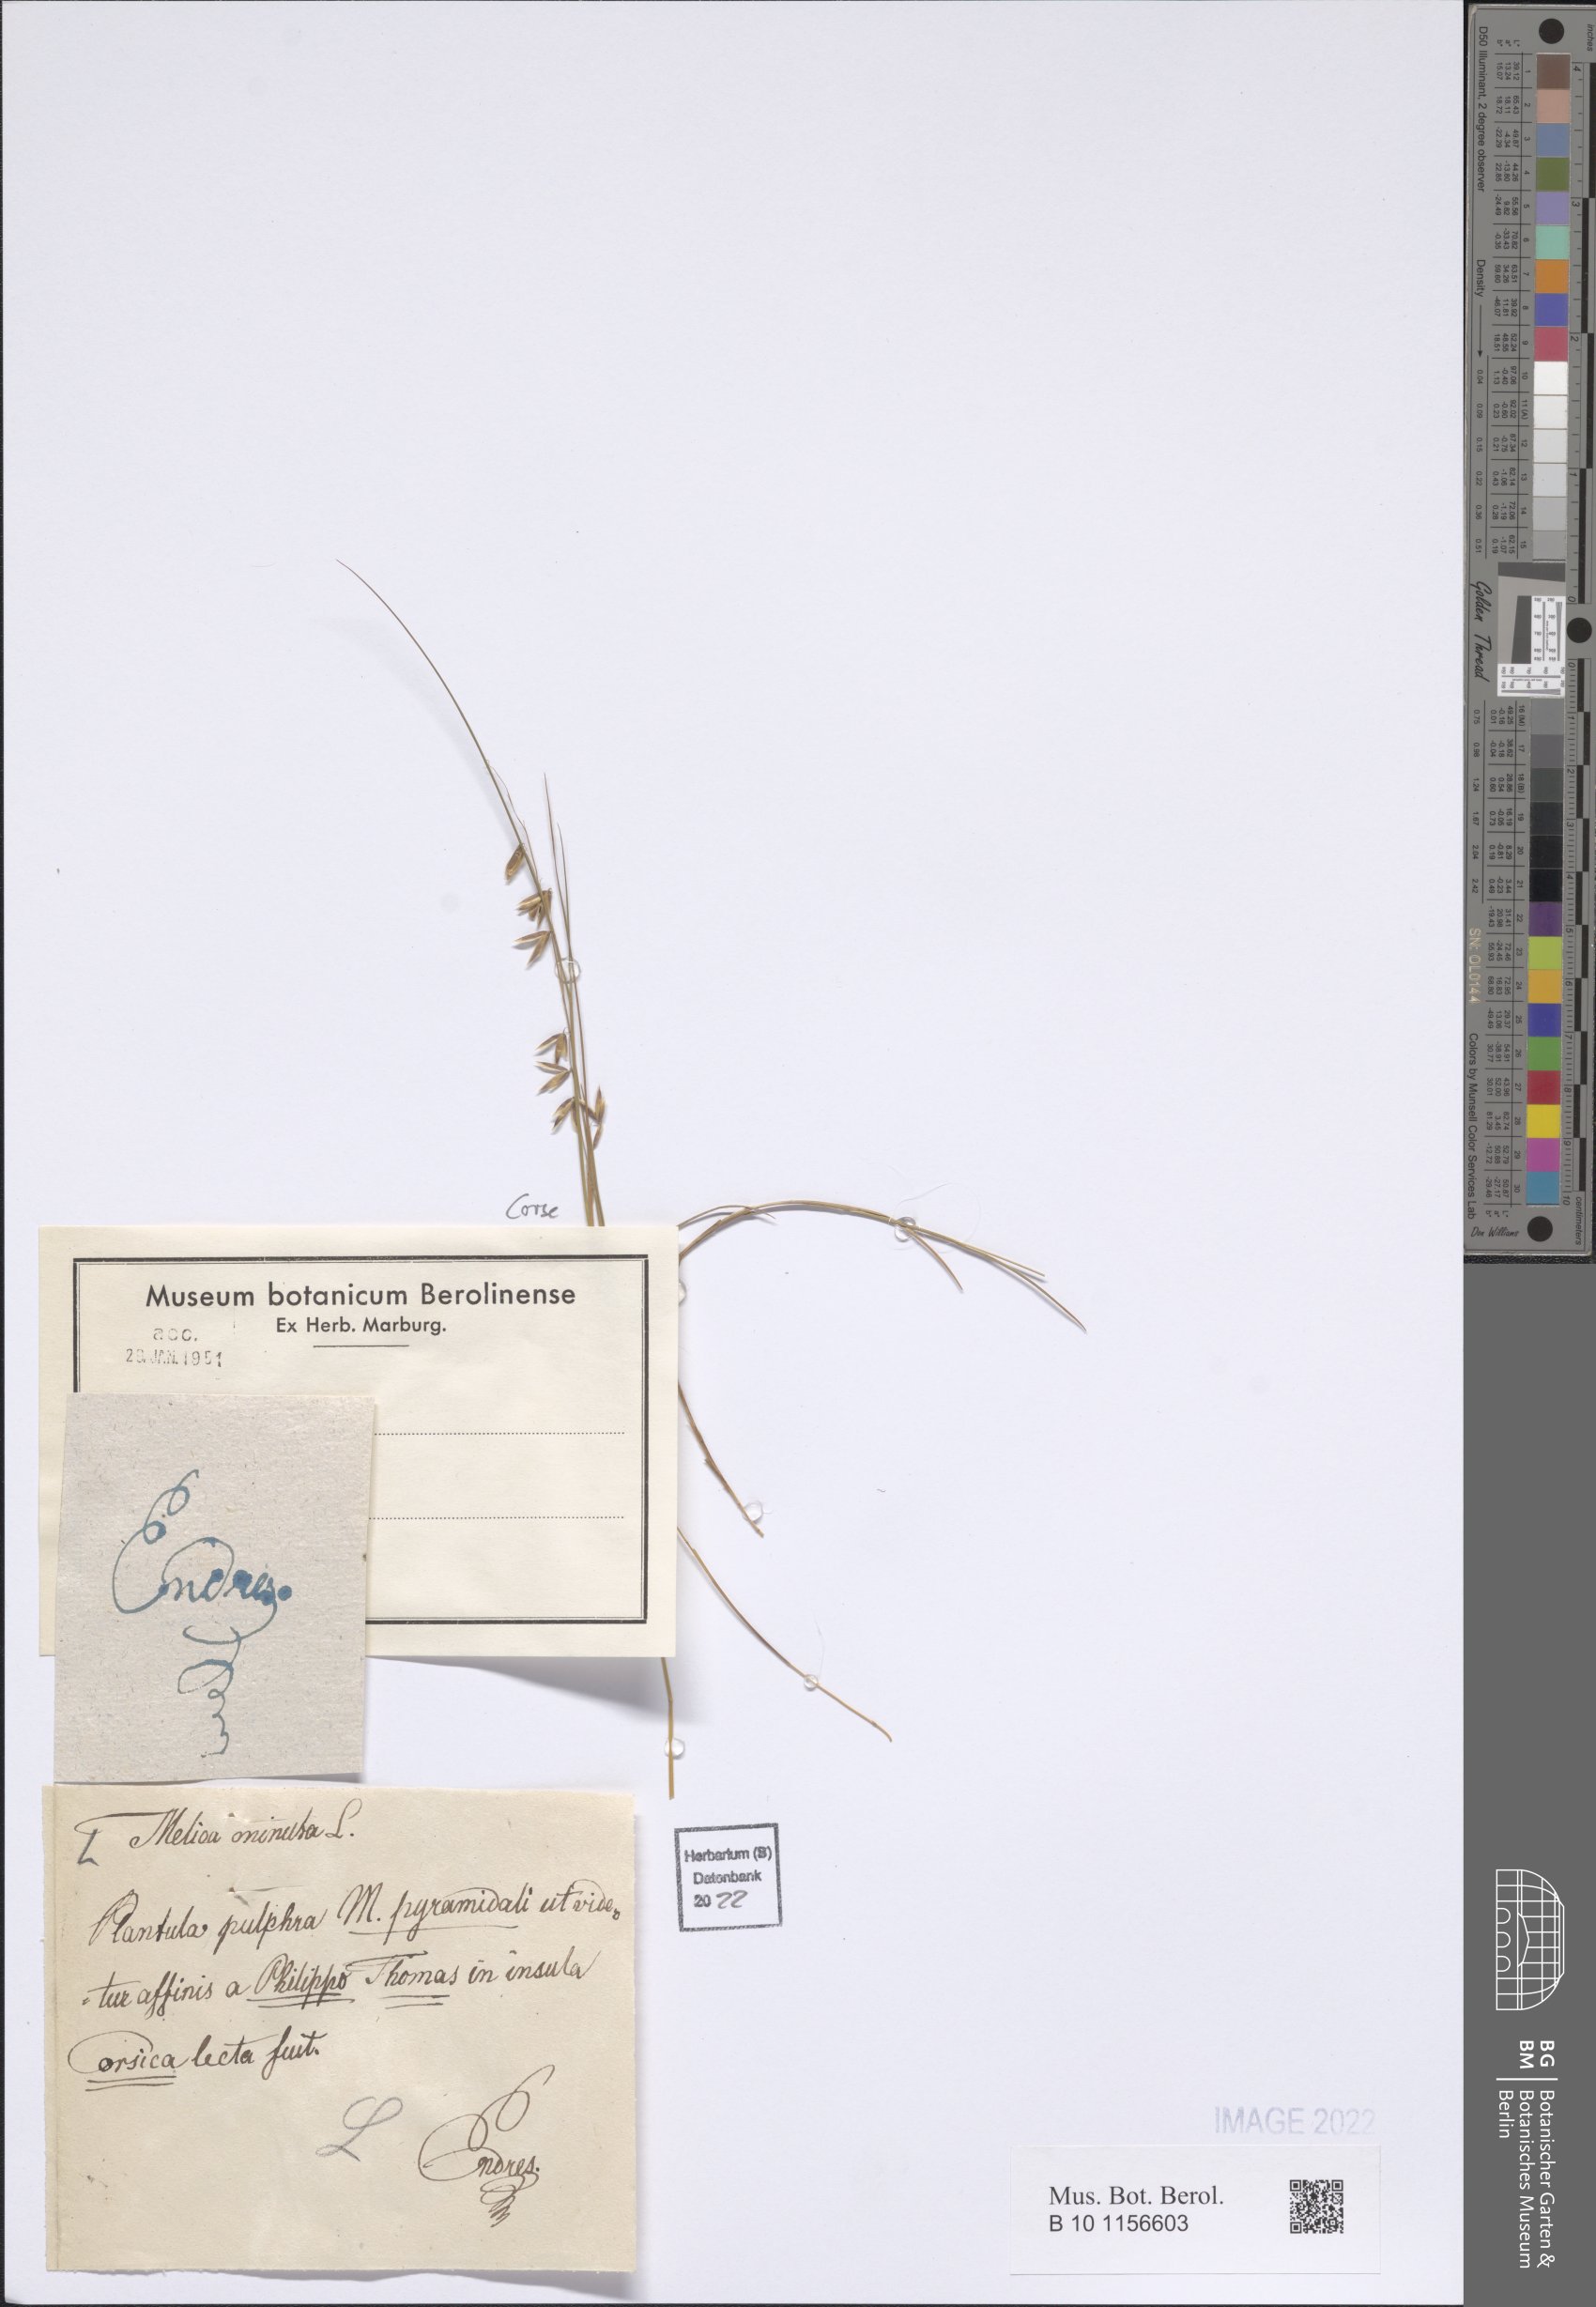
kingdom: Plantae
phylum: Tracheophyta
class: Liliopsida
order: Poales
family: Poaceae
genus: Melica
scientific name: Melica minuta
